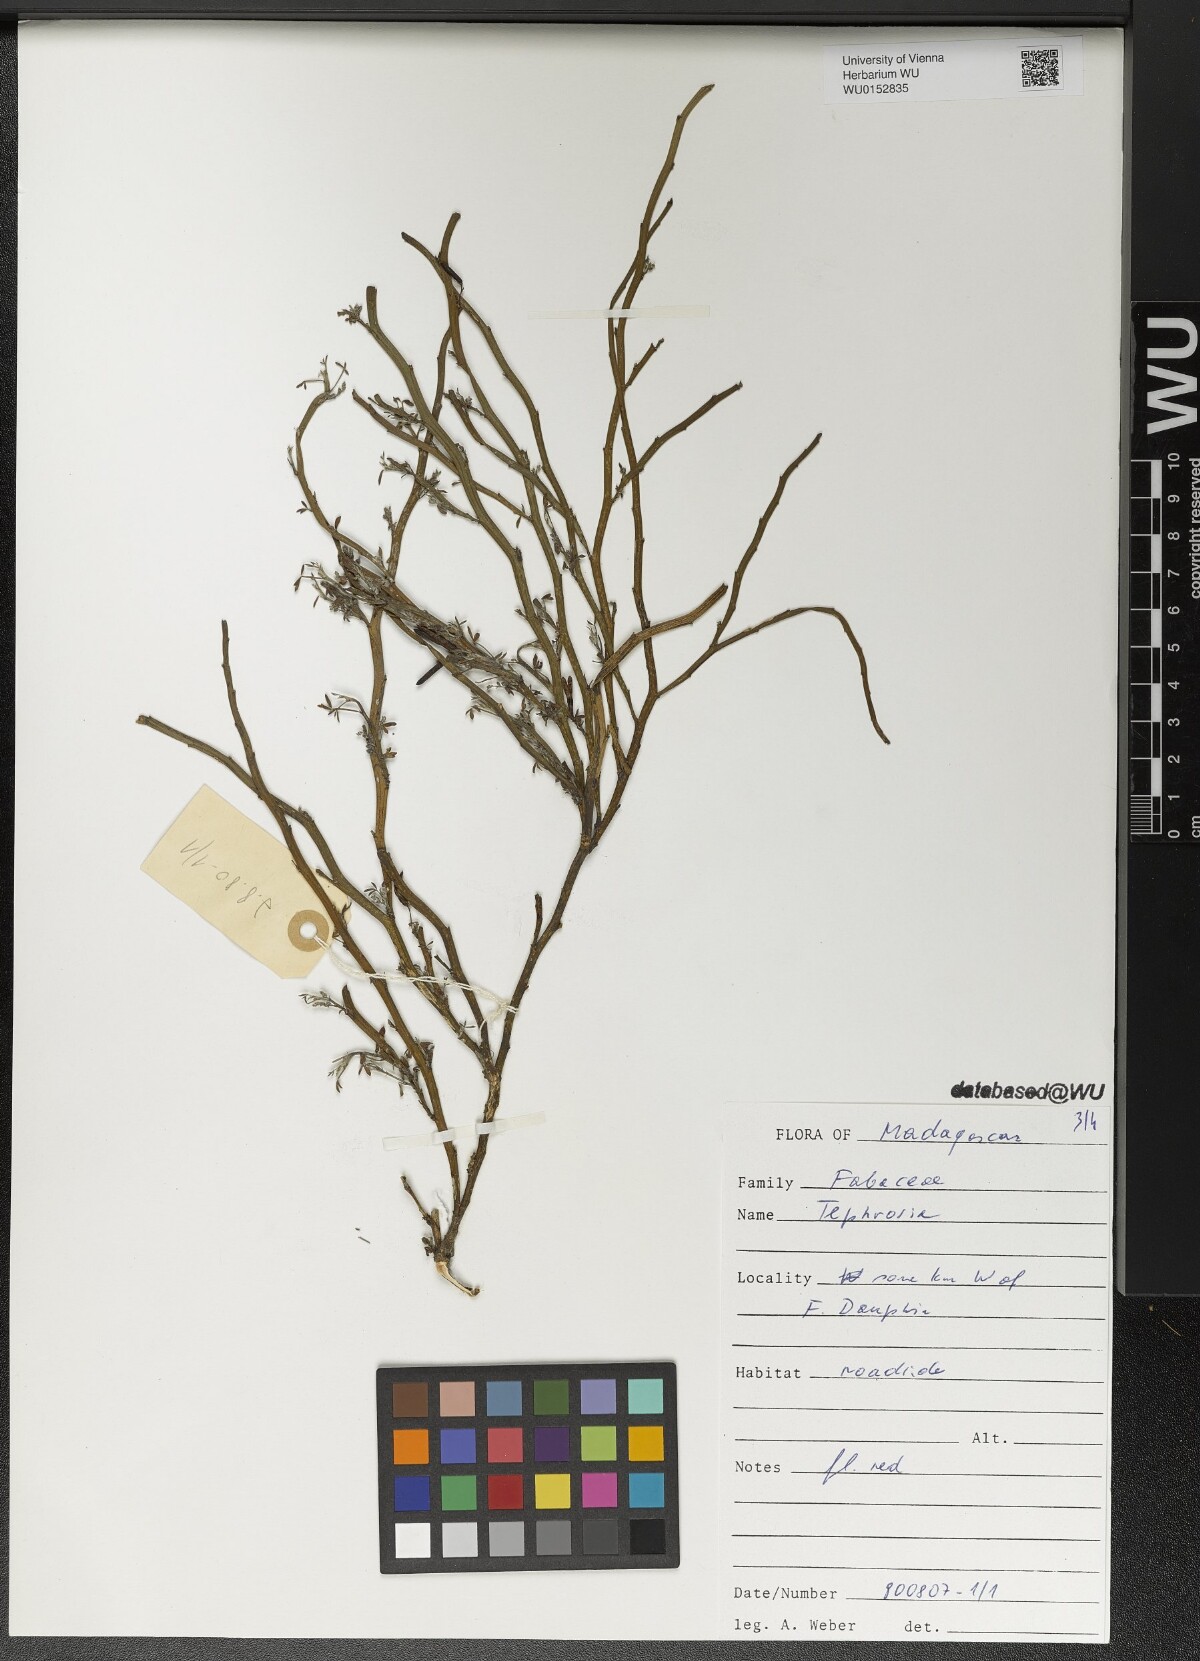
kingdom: Plantae
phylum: Tracheophyta
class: Magnoliopsida
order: Fabales
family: Fabaceae
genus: Tephrosia
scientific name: Tephrosia
